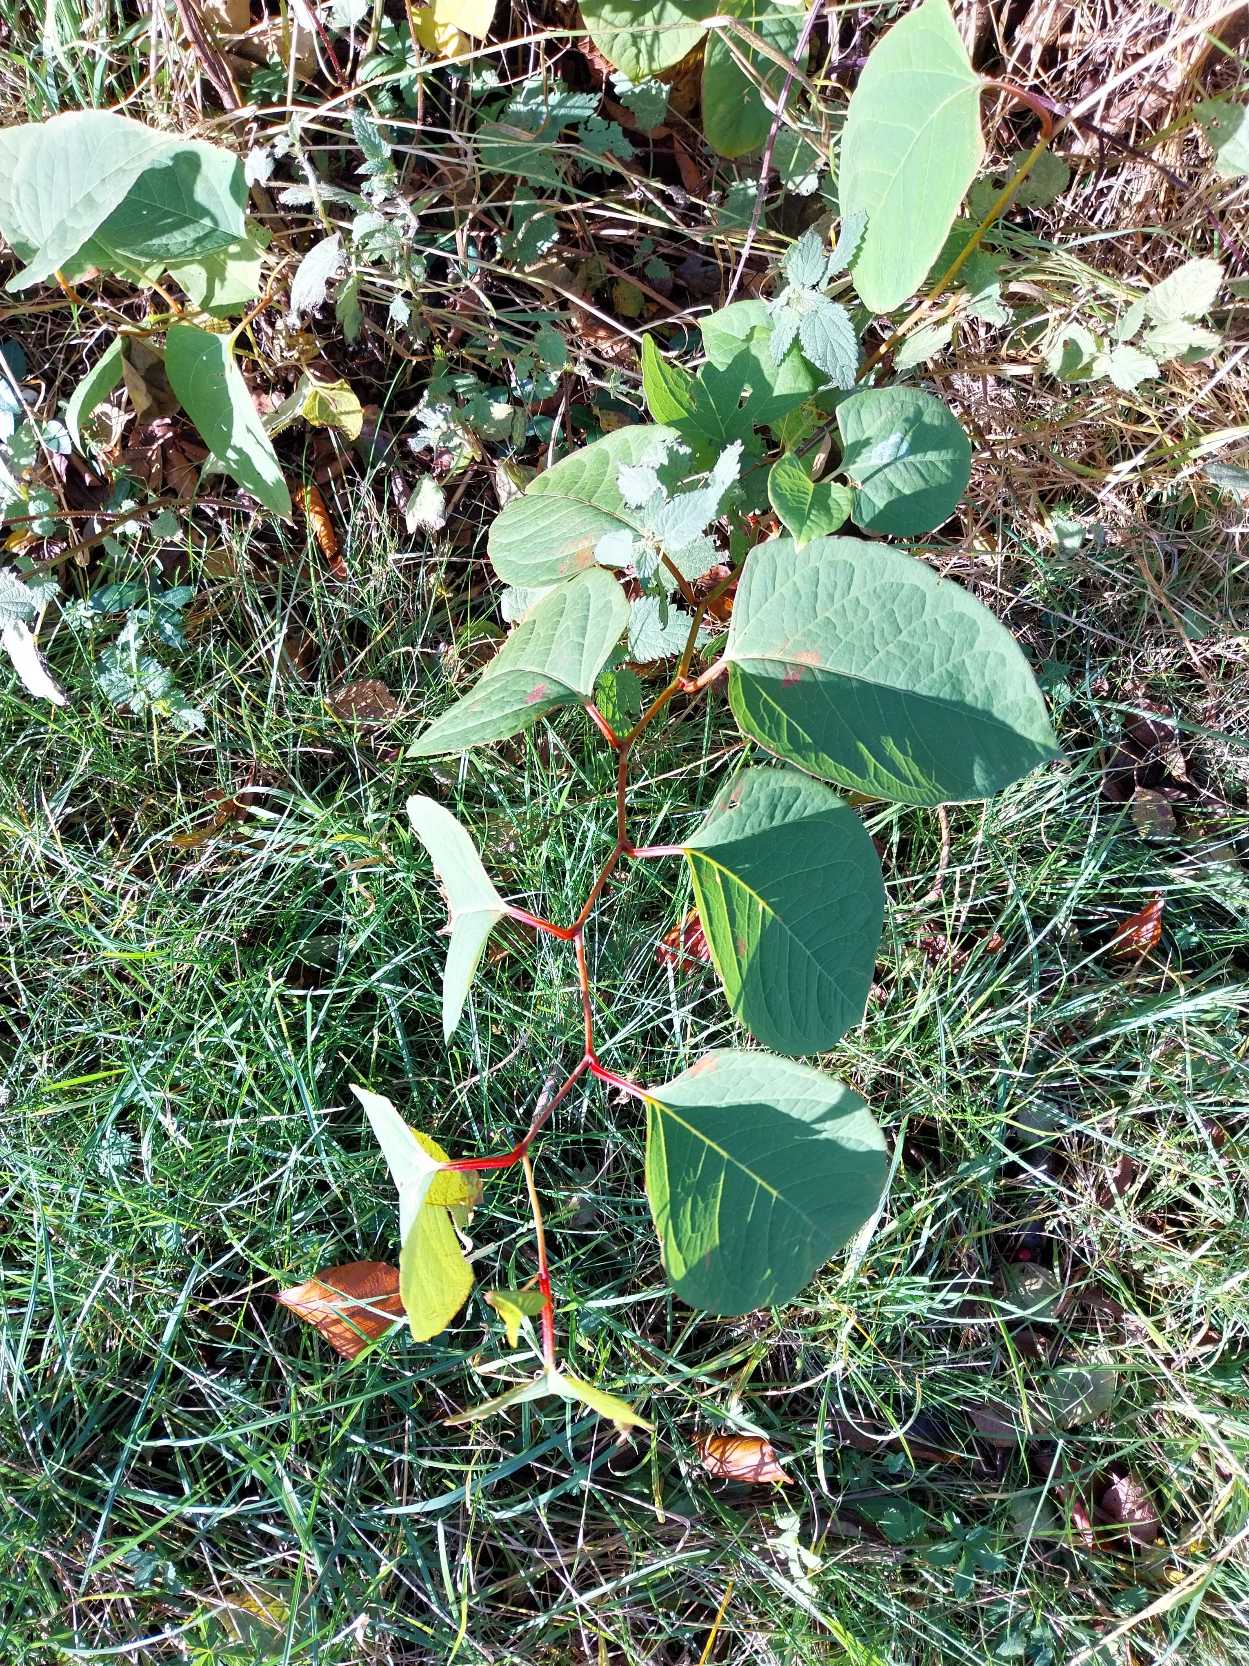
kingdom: Plantae
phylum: Tracheophyta
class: Magnoliopsida
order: Caryophyllales
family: Polygonaceae
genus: Reynoutria
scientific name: Reynoutria japonica
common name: Japan-pileurt
